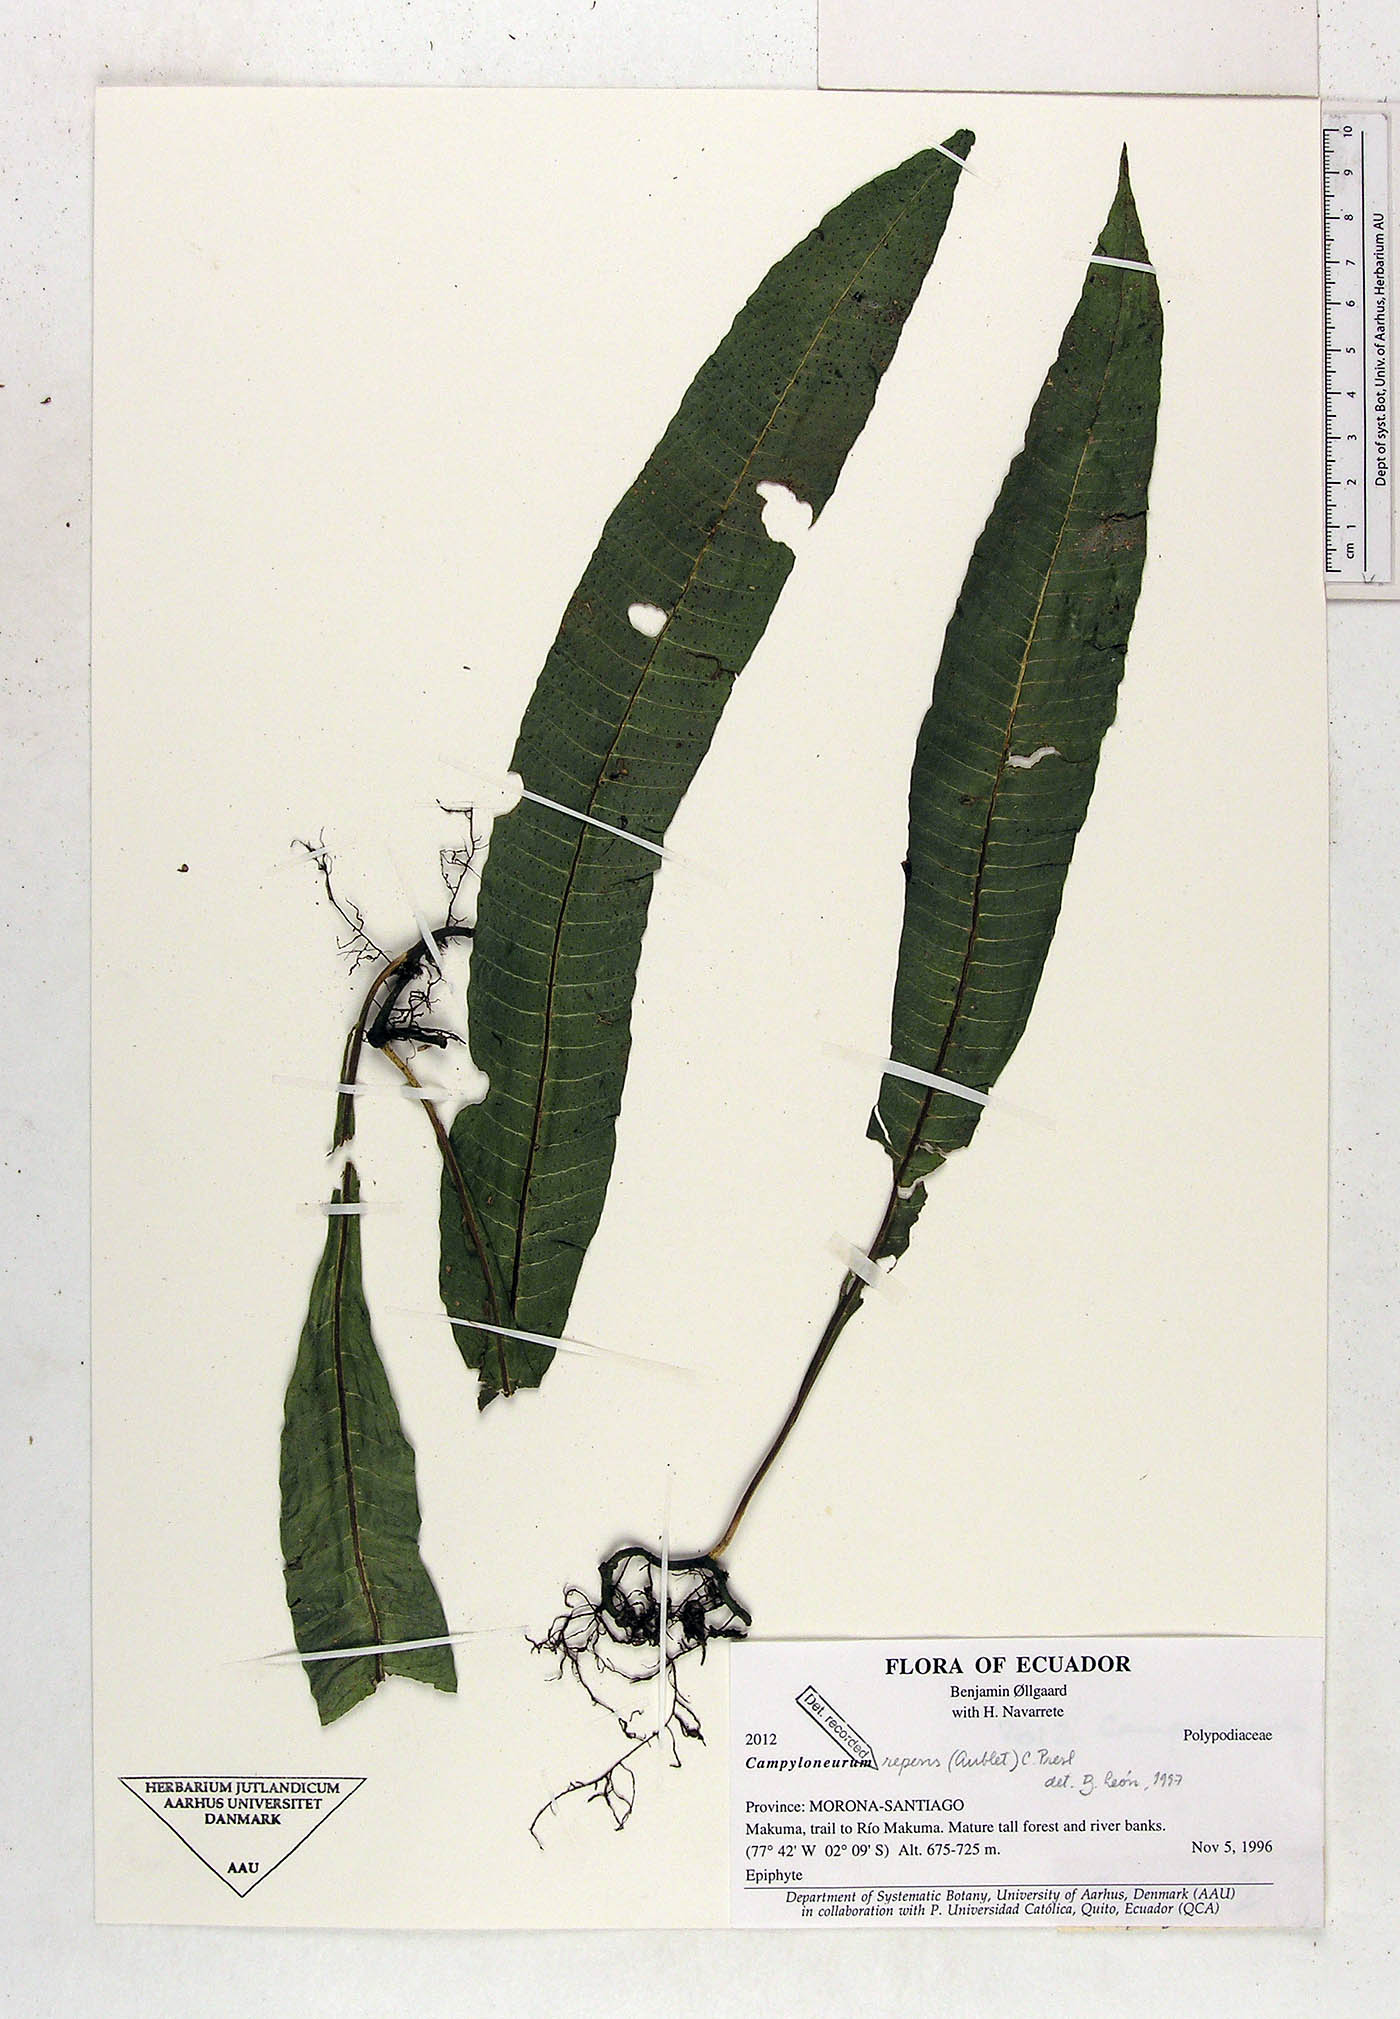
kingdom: Plantae
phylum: Tracheophyta
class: Polypodiopsida
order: Polypodiales
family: Polypodiaceae
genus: Campyloneurum
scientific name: Campyloneurum repens
